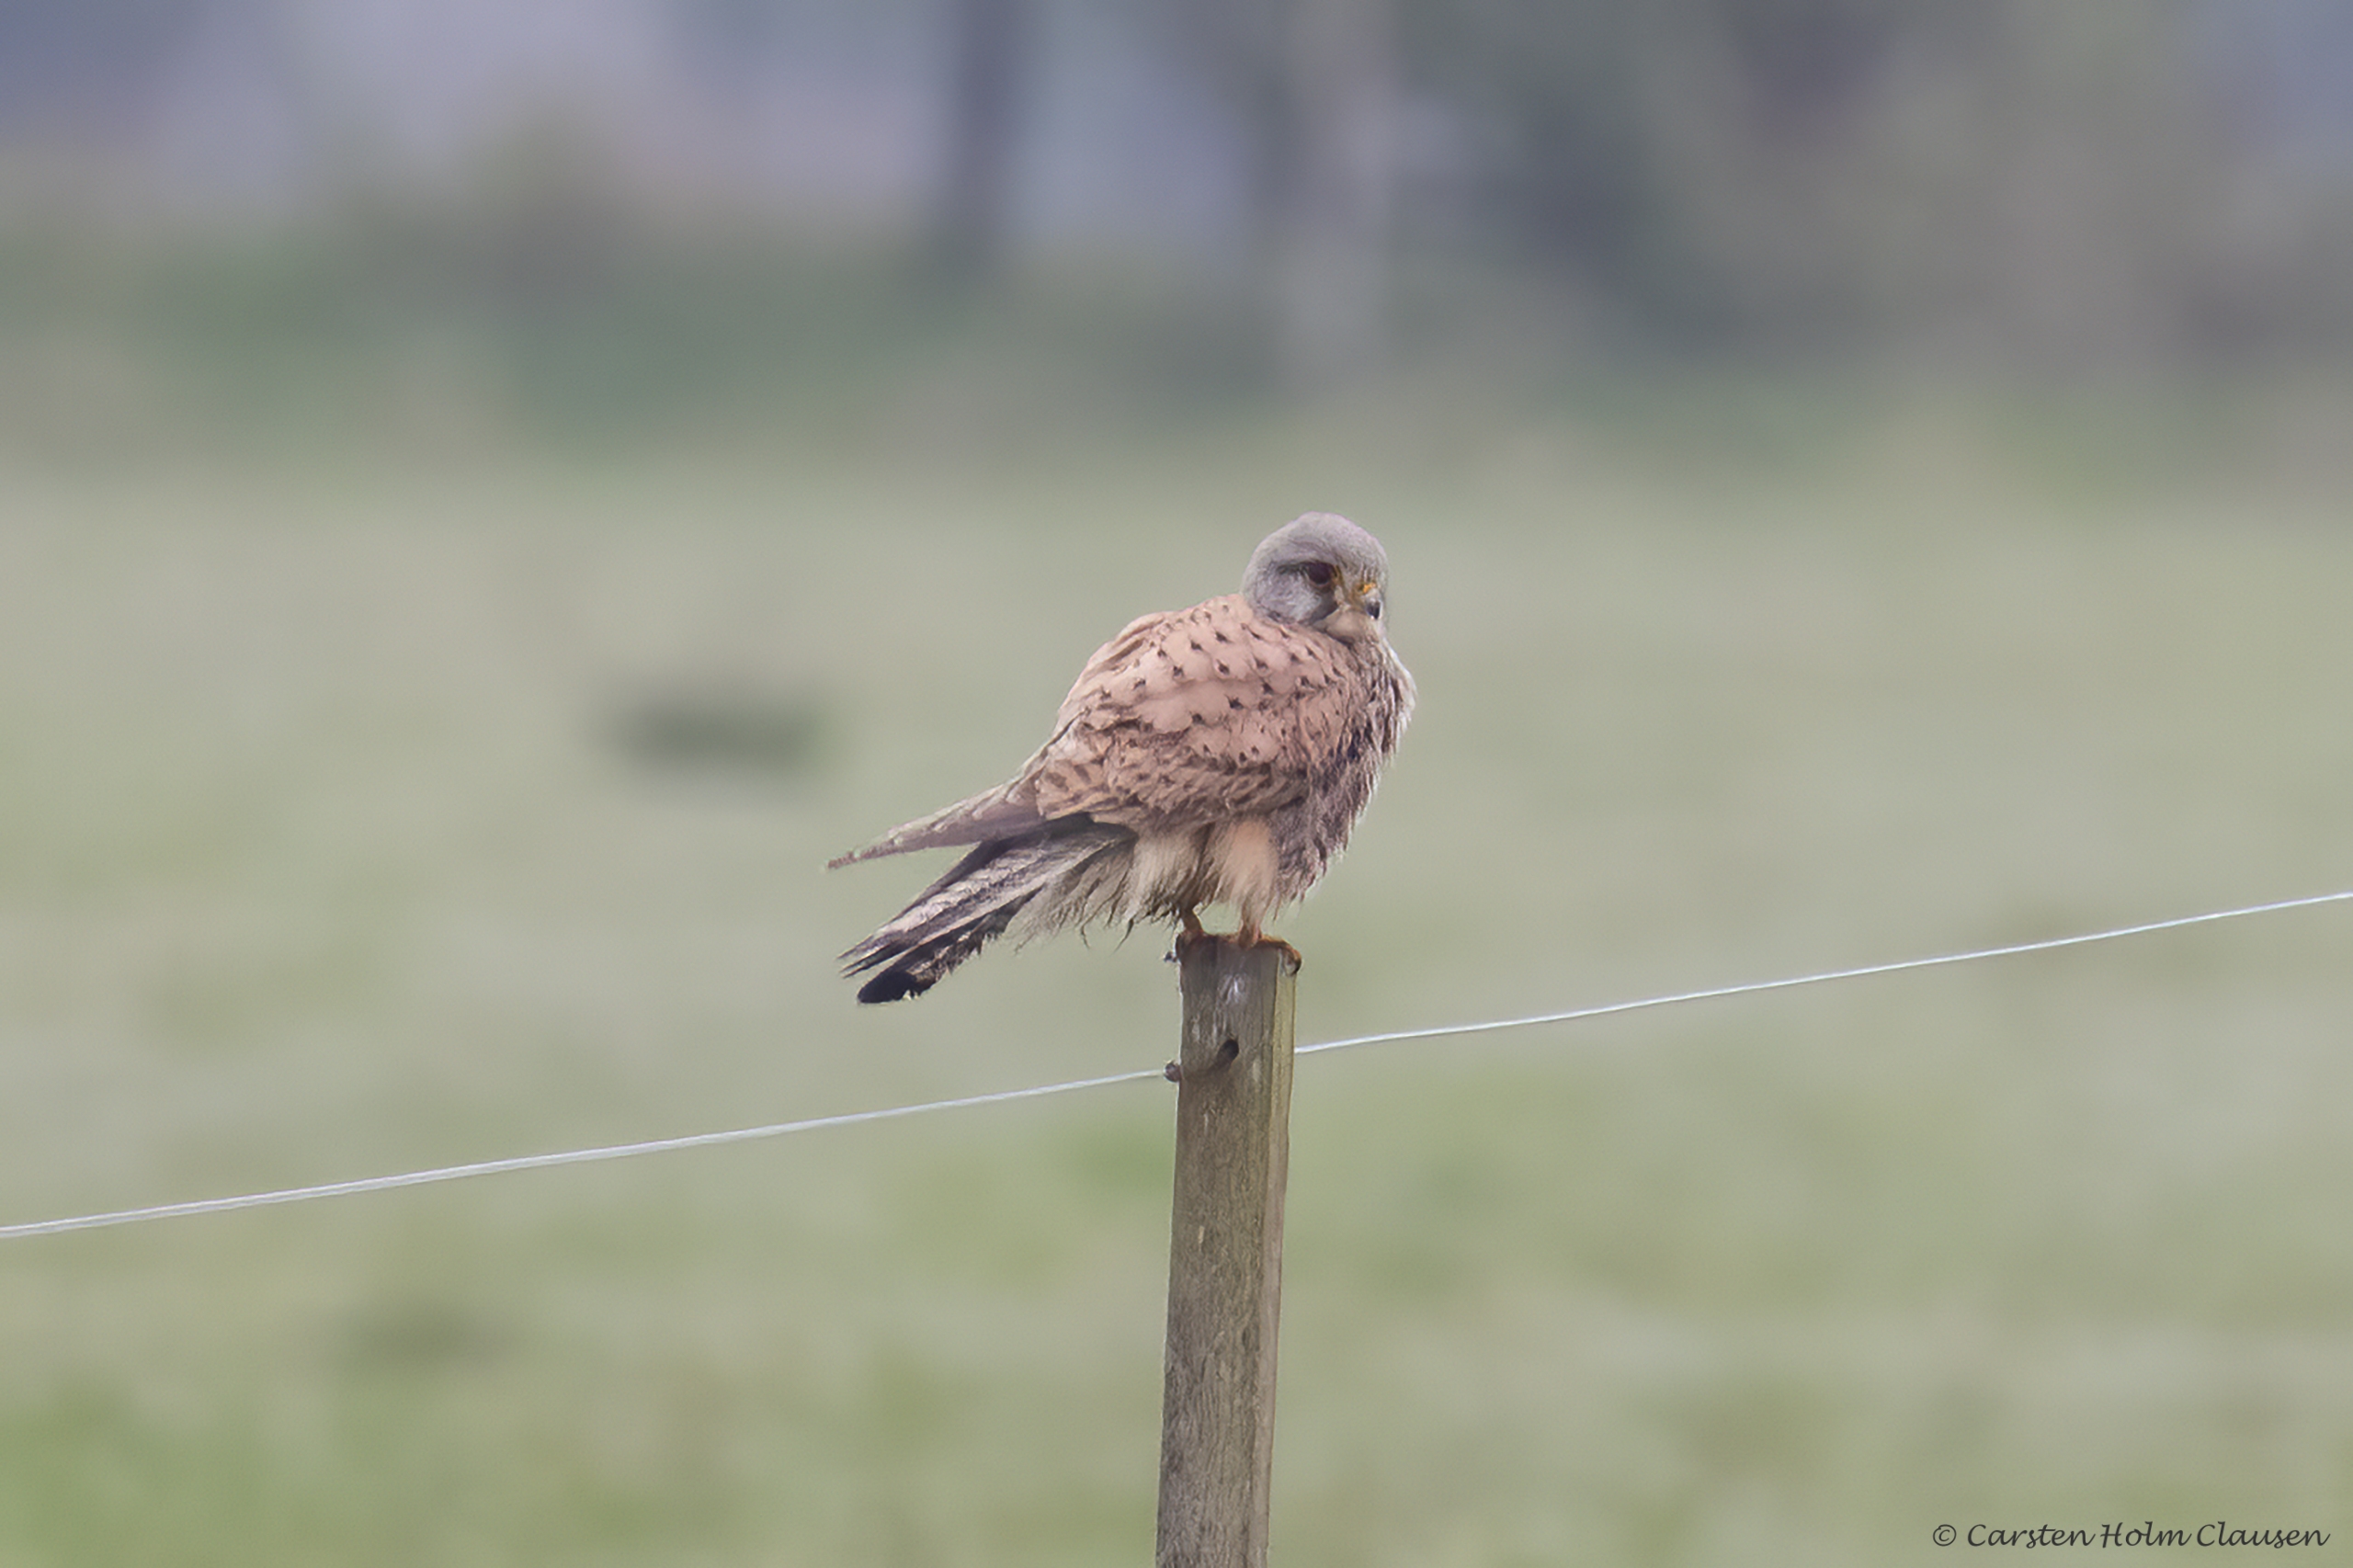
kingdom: Animalia
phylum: Chordata
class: Aves
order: Falconiformes
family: Falconidae
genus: Falco
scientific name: Falco tinnunculus
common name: Tårnfalk
